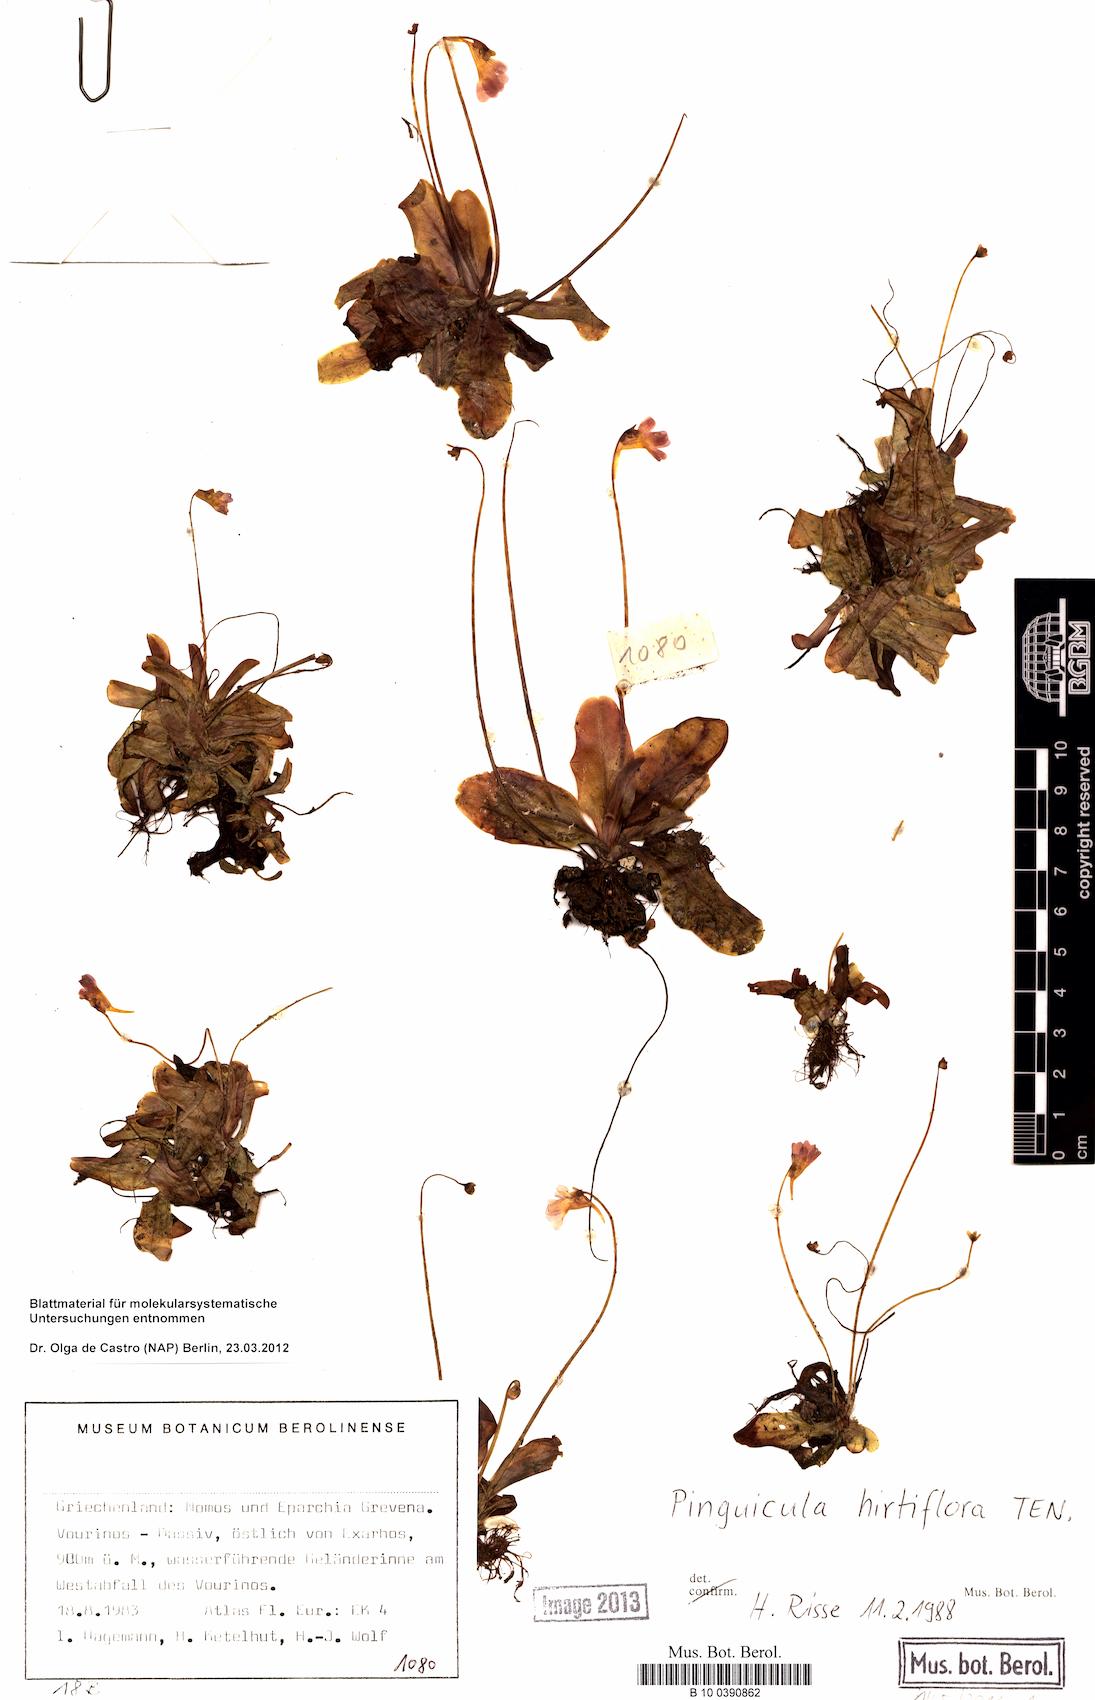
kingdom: Plantae
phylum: Tracheophyta
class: Magnoliopsida
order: Lamiales
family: Lentibulariaceae
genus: Pinguicula
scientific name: Pinguicula crystallina
